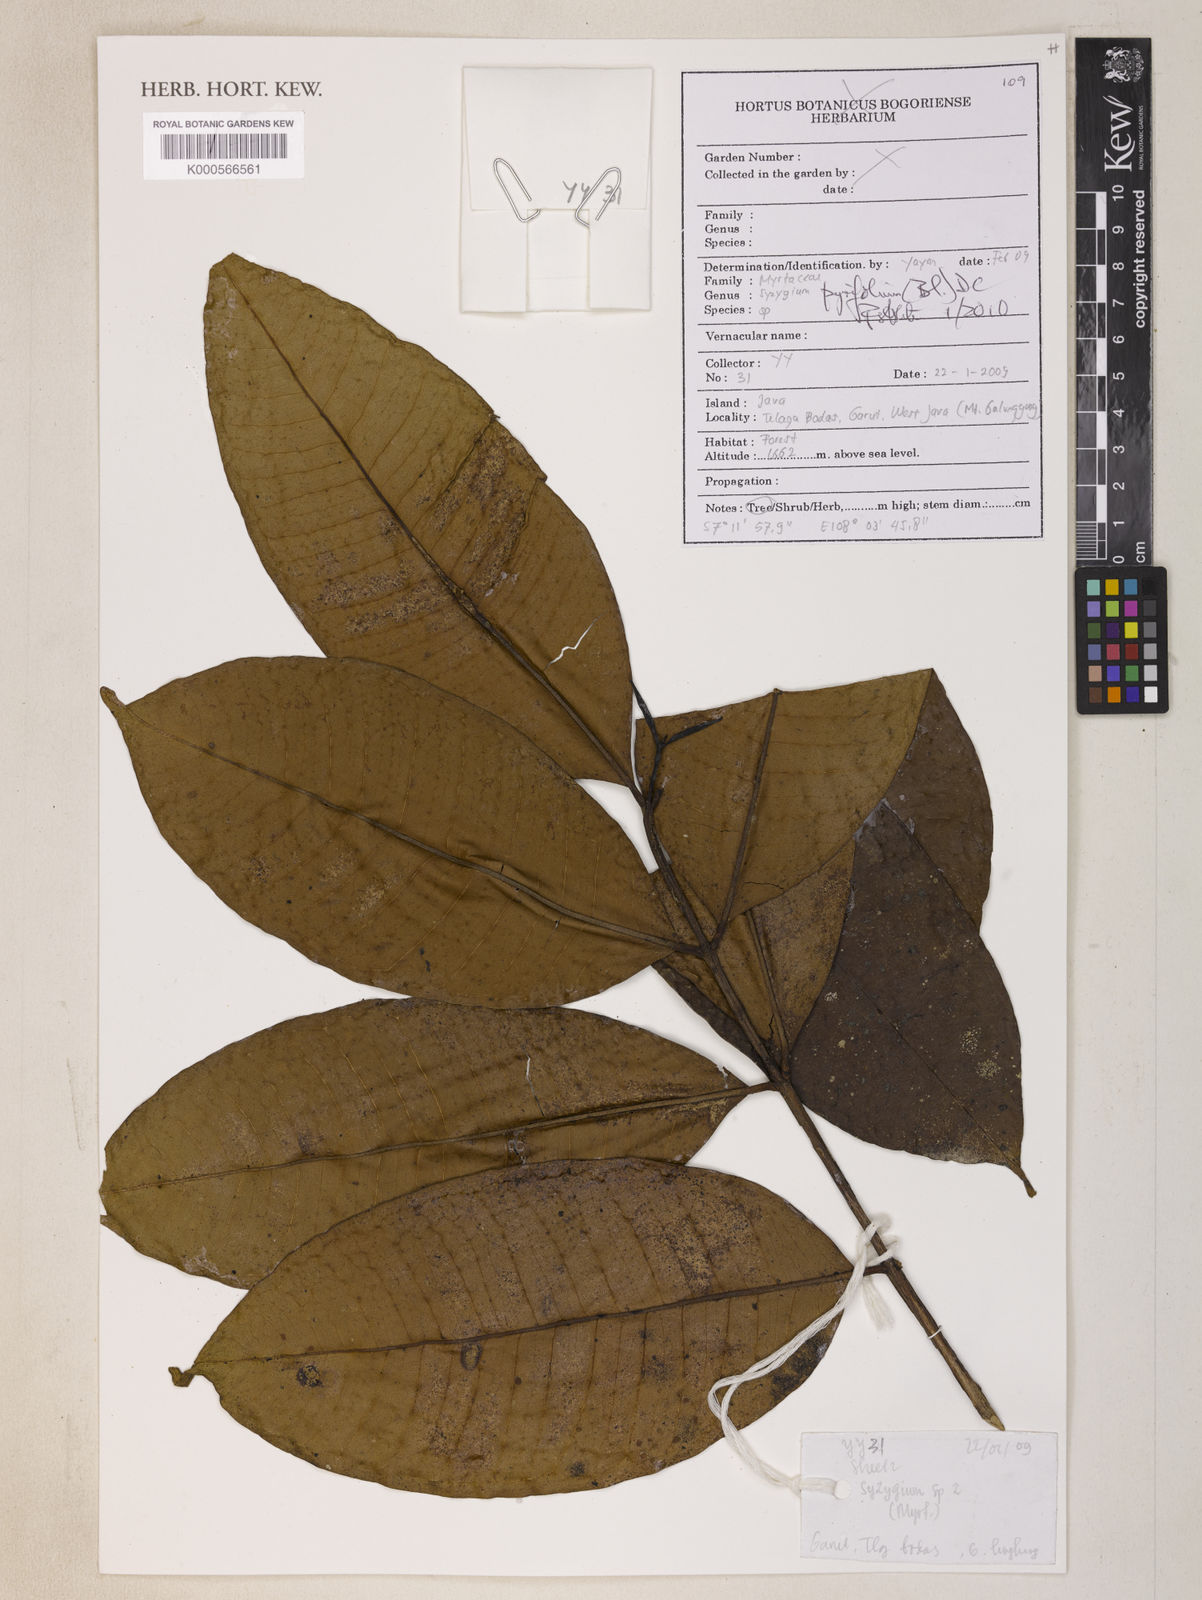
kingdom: Plantae
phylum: Tracheophyta
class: Magnoliopsida
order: Myrtales
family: Myrtaceae
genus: Syzygium
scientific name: Syzygium pyrifolium
